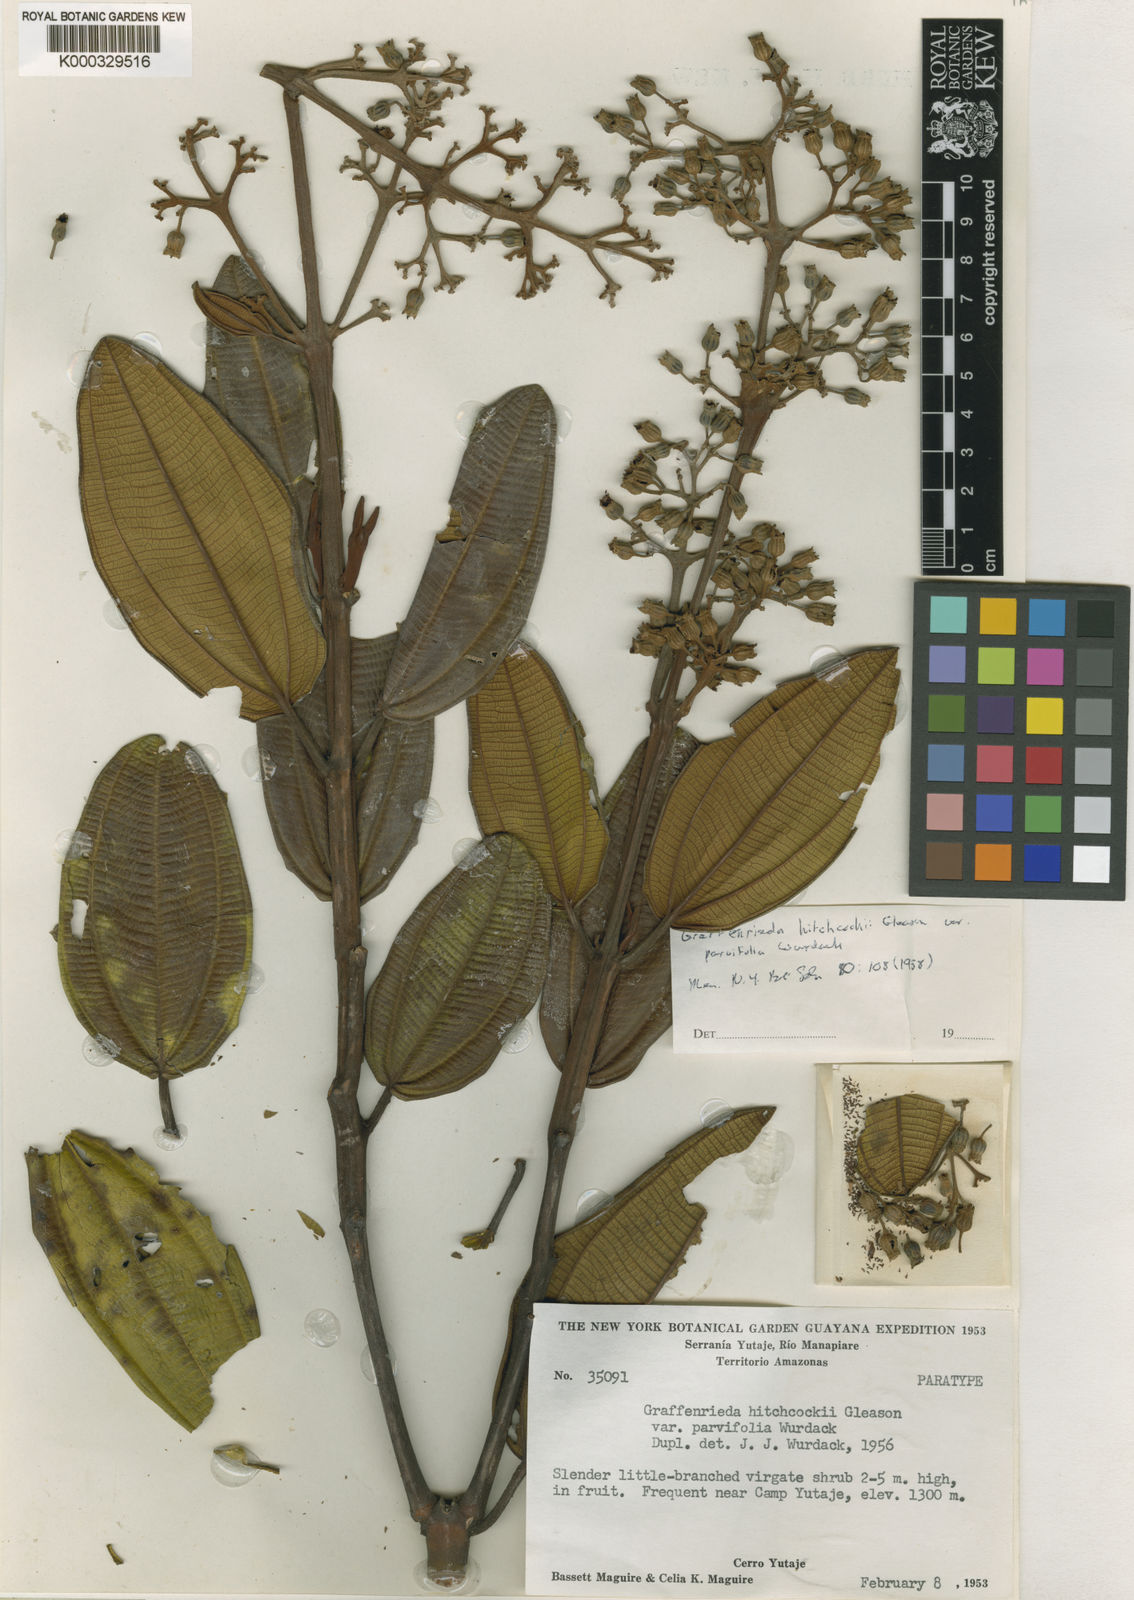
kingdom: Plantae
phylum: Tracheophyta
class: Magnoliopsida
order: Myrtales
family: Melastomataceae
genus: Graffenrieda
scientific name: Graffenrieda hitchcockii
